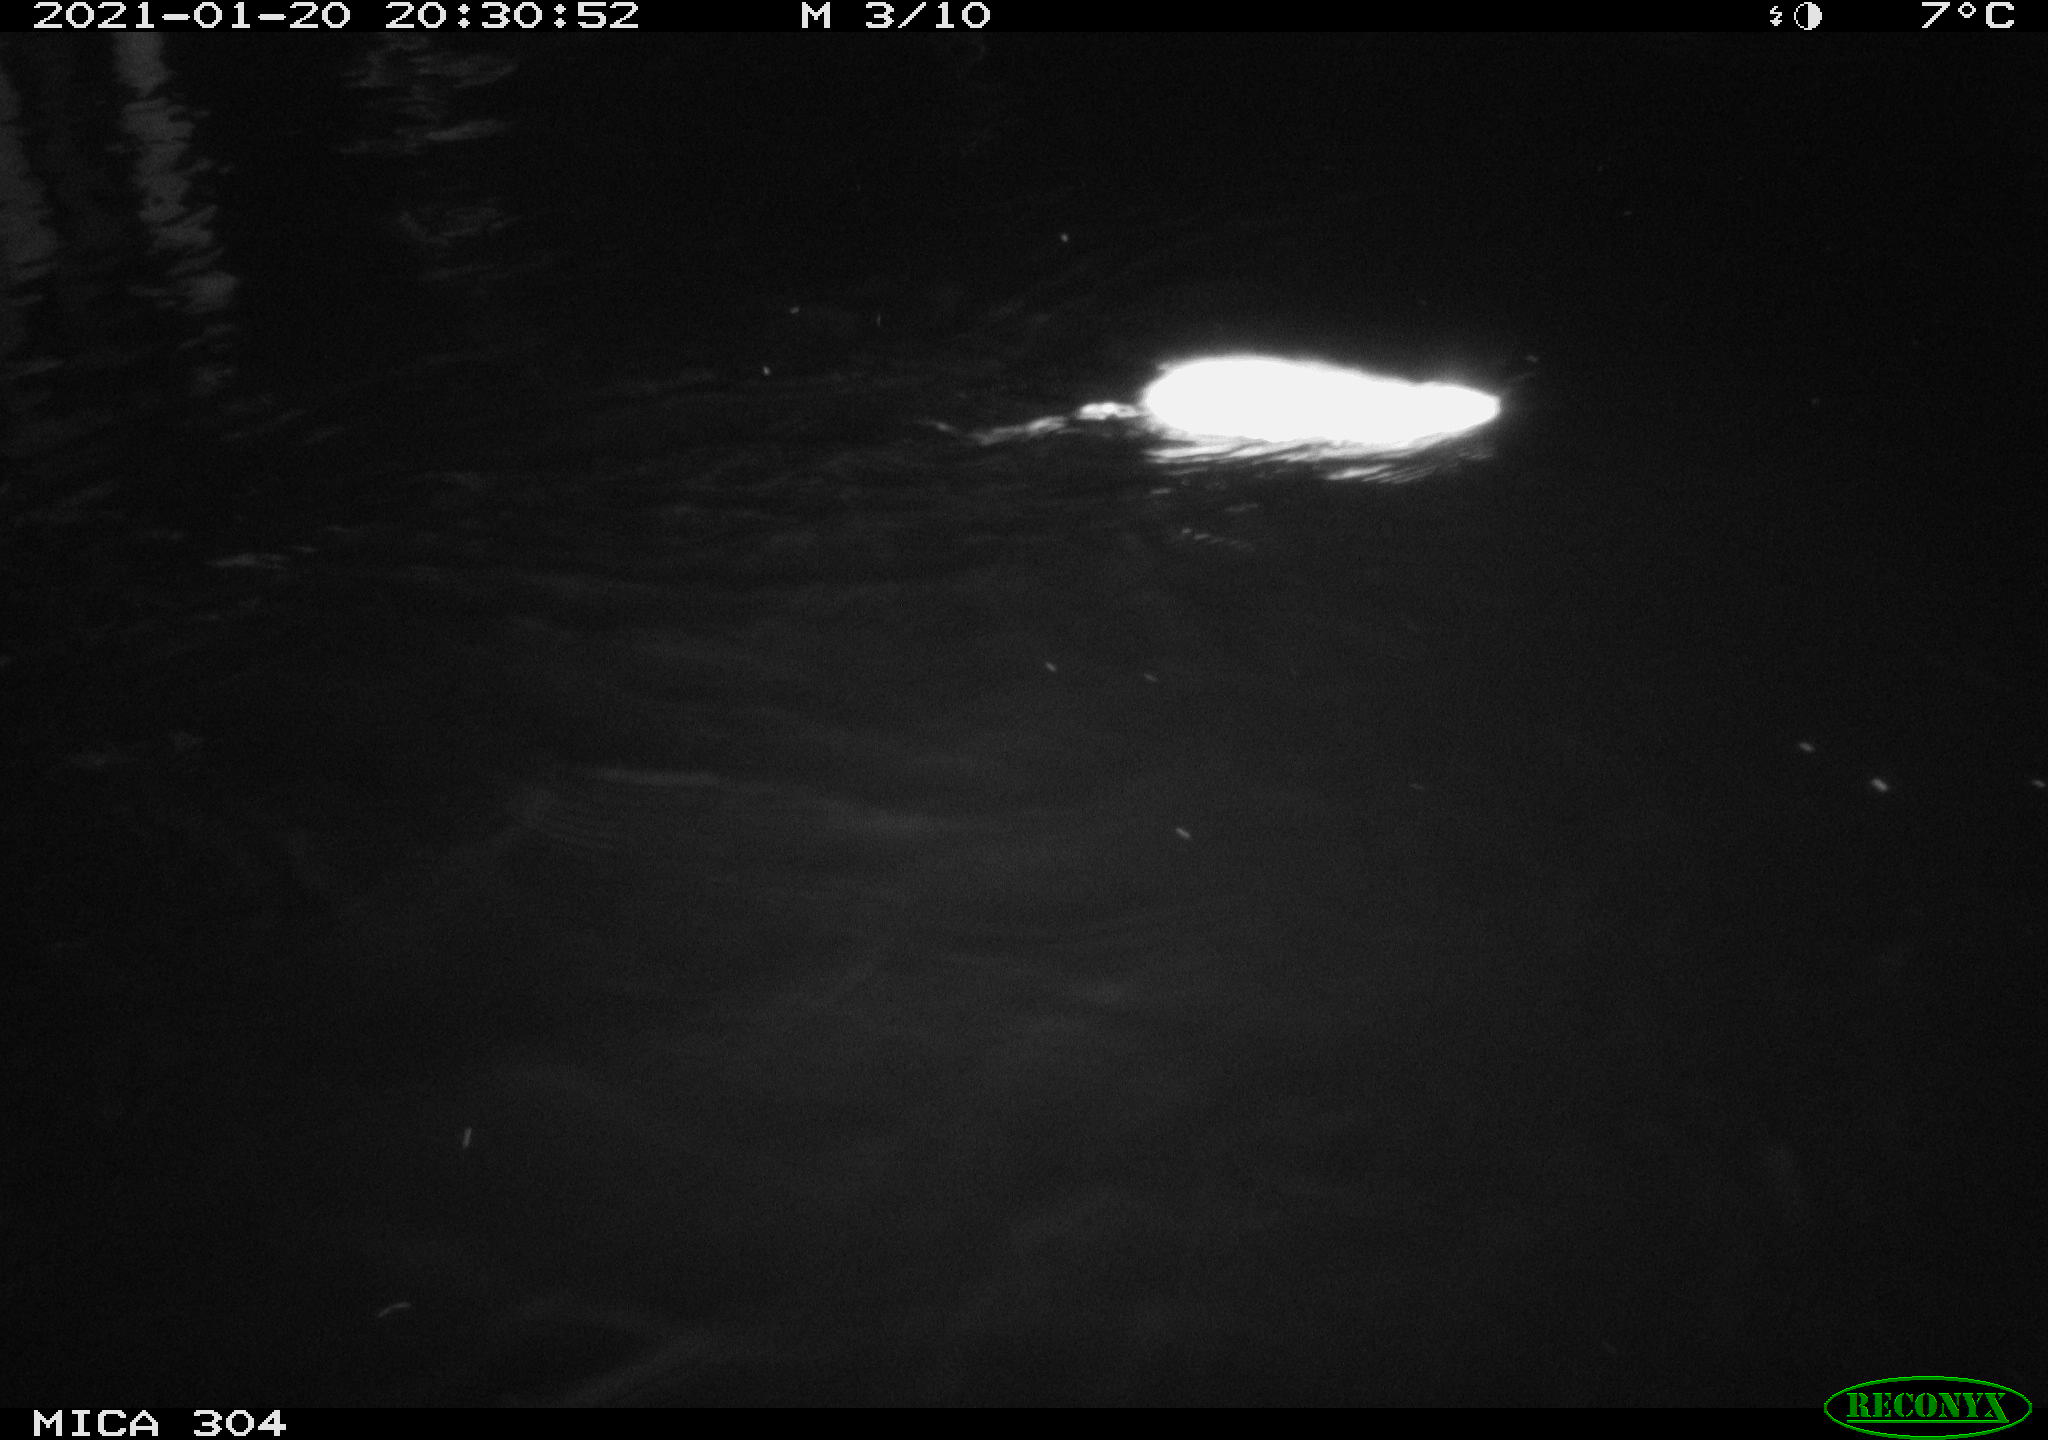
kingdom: Animalia
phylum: Chordata
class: Mammalia
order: Rodentia
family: Muridae
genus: Rattus
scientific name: Rattus norvegicus
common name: Brown rat
